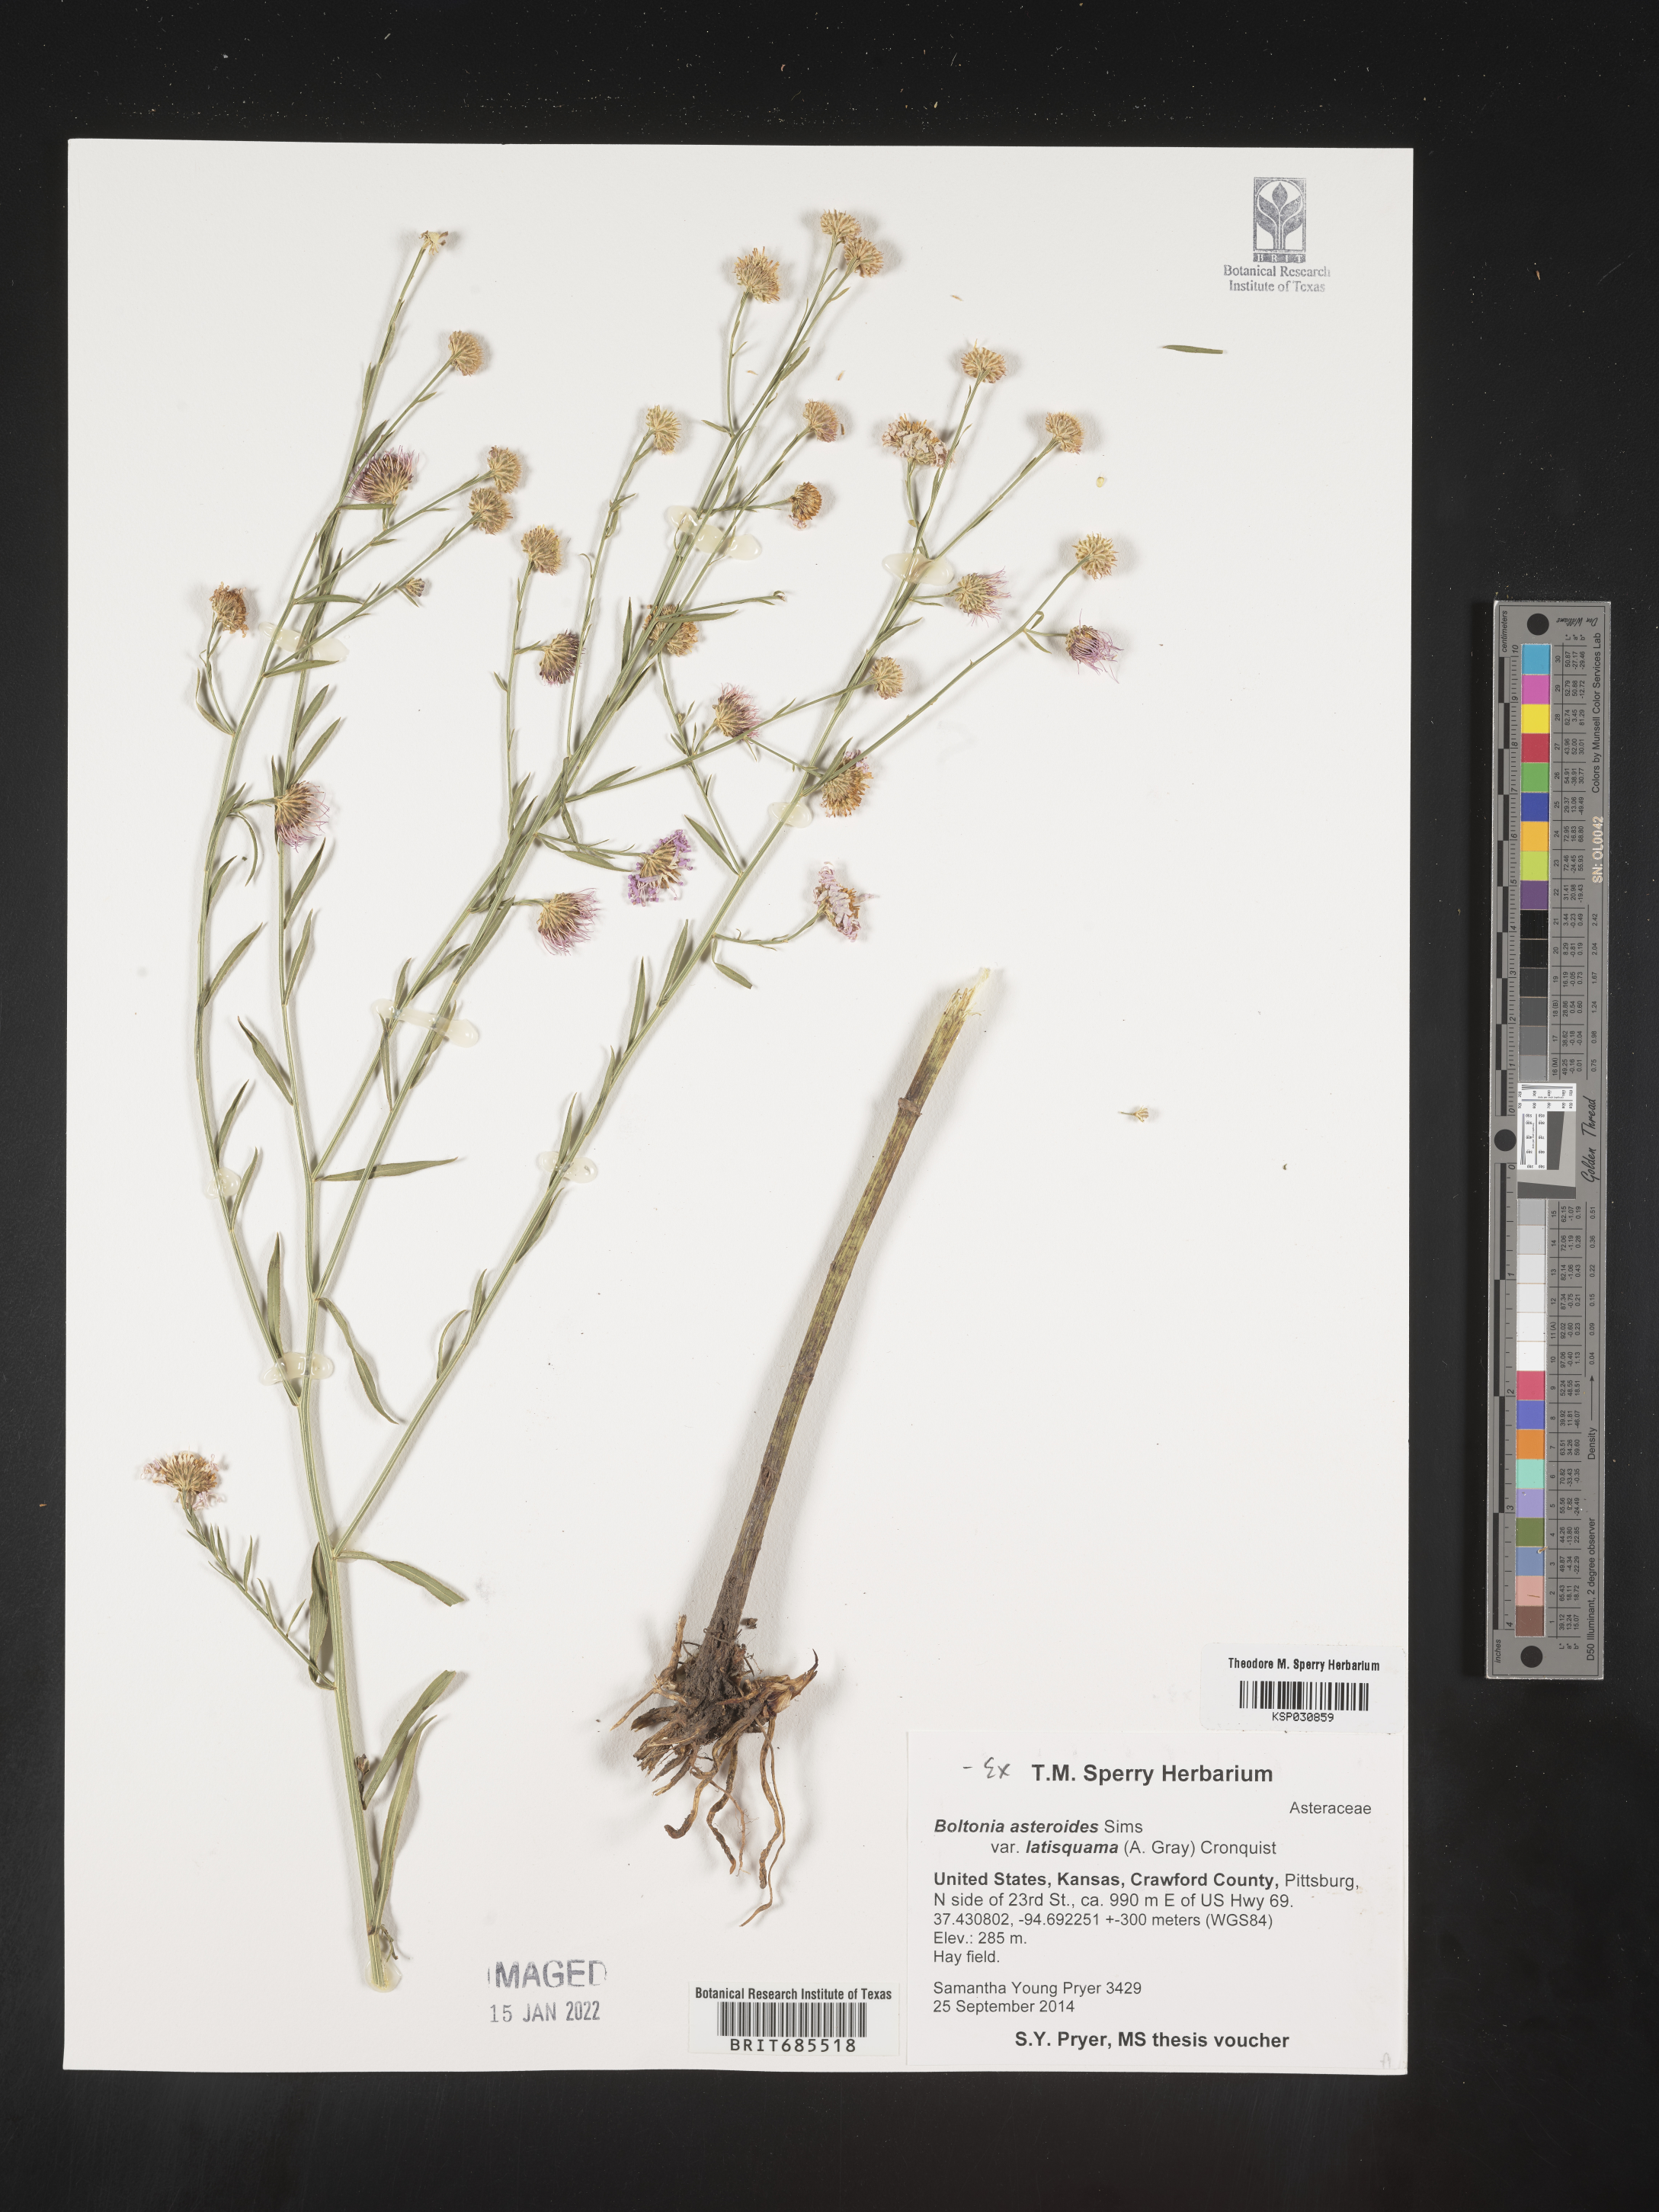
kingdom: Plantae
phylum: Tracheophyta
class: Magnoliopsida
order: Asterales
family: Asteraceae
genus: Boltonia
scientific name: Boltonia asteroides
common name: False chamomile
